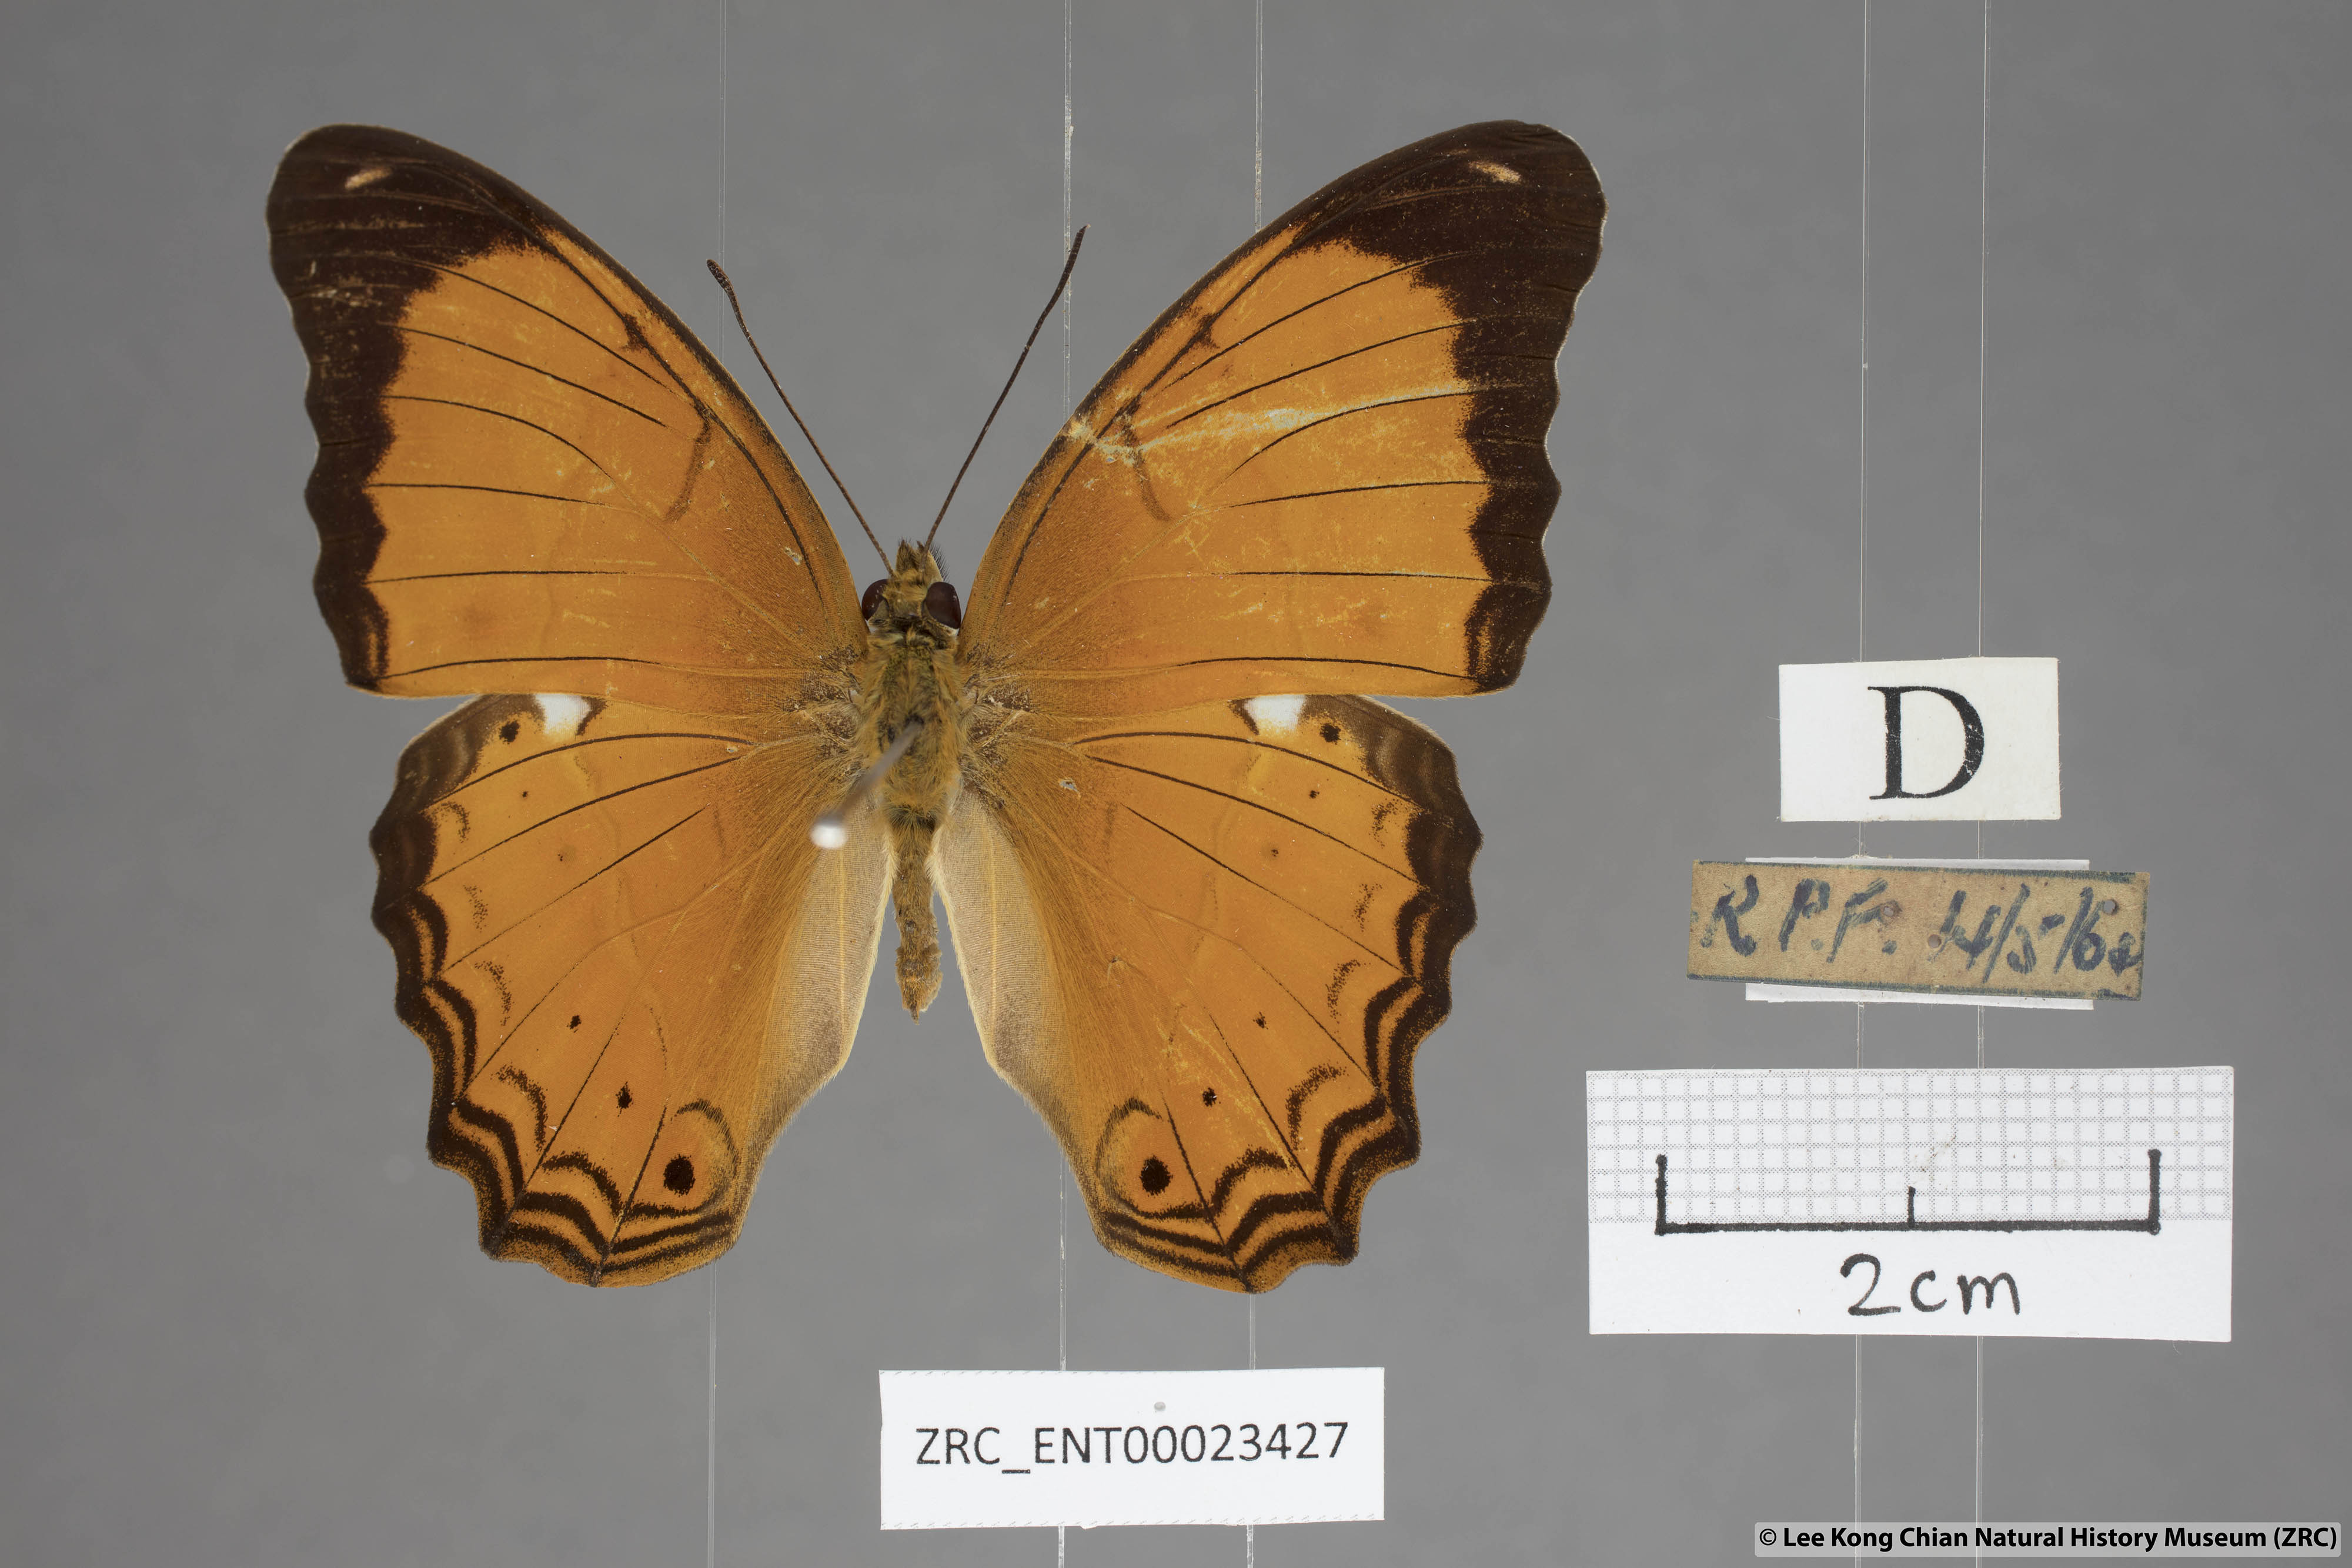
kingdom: Animalia
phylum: Arthropoda
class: Insecta
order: Lepidoptera
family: Nymphalidae
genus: Cirrochroa
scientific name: Cirrochroa emalea
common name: Malay yeoman
